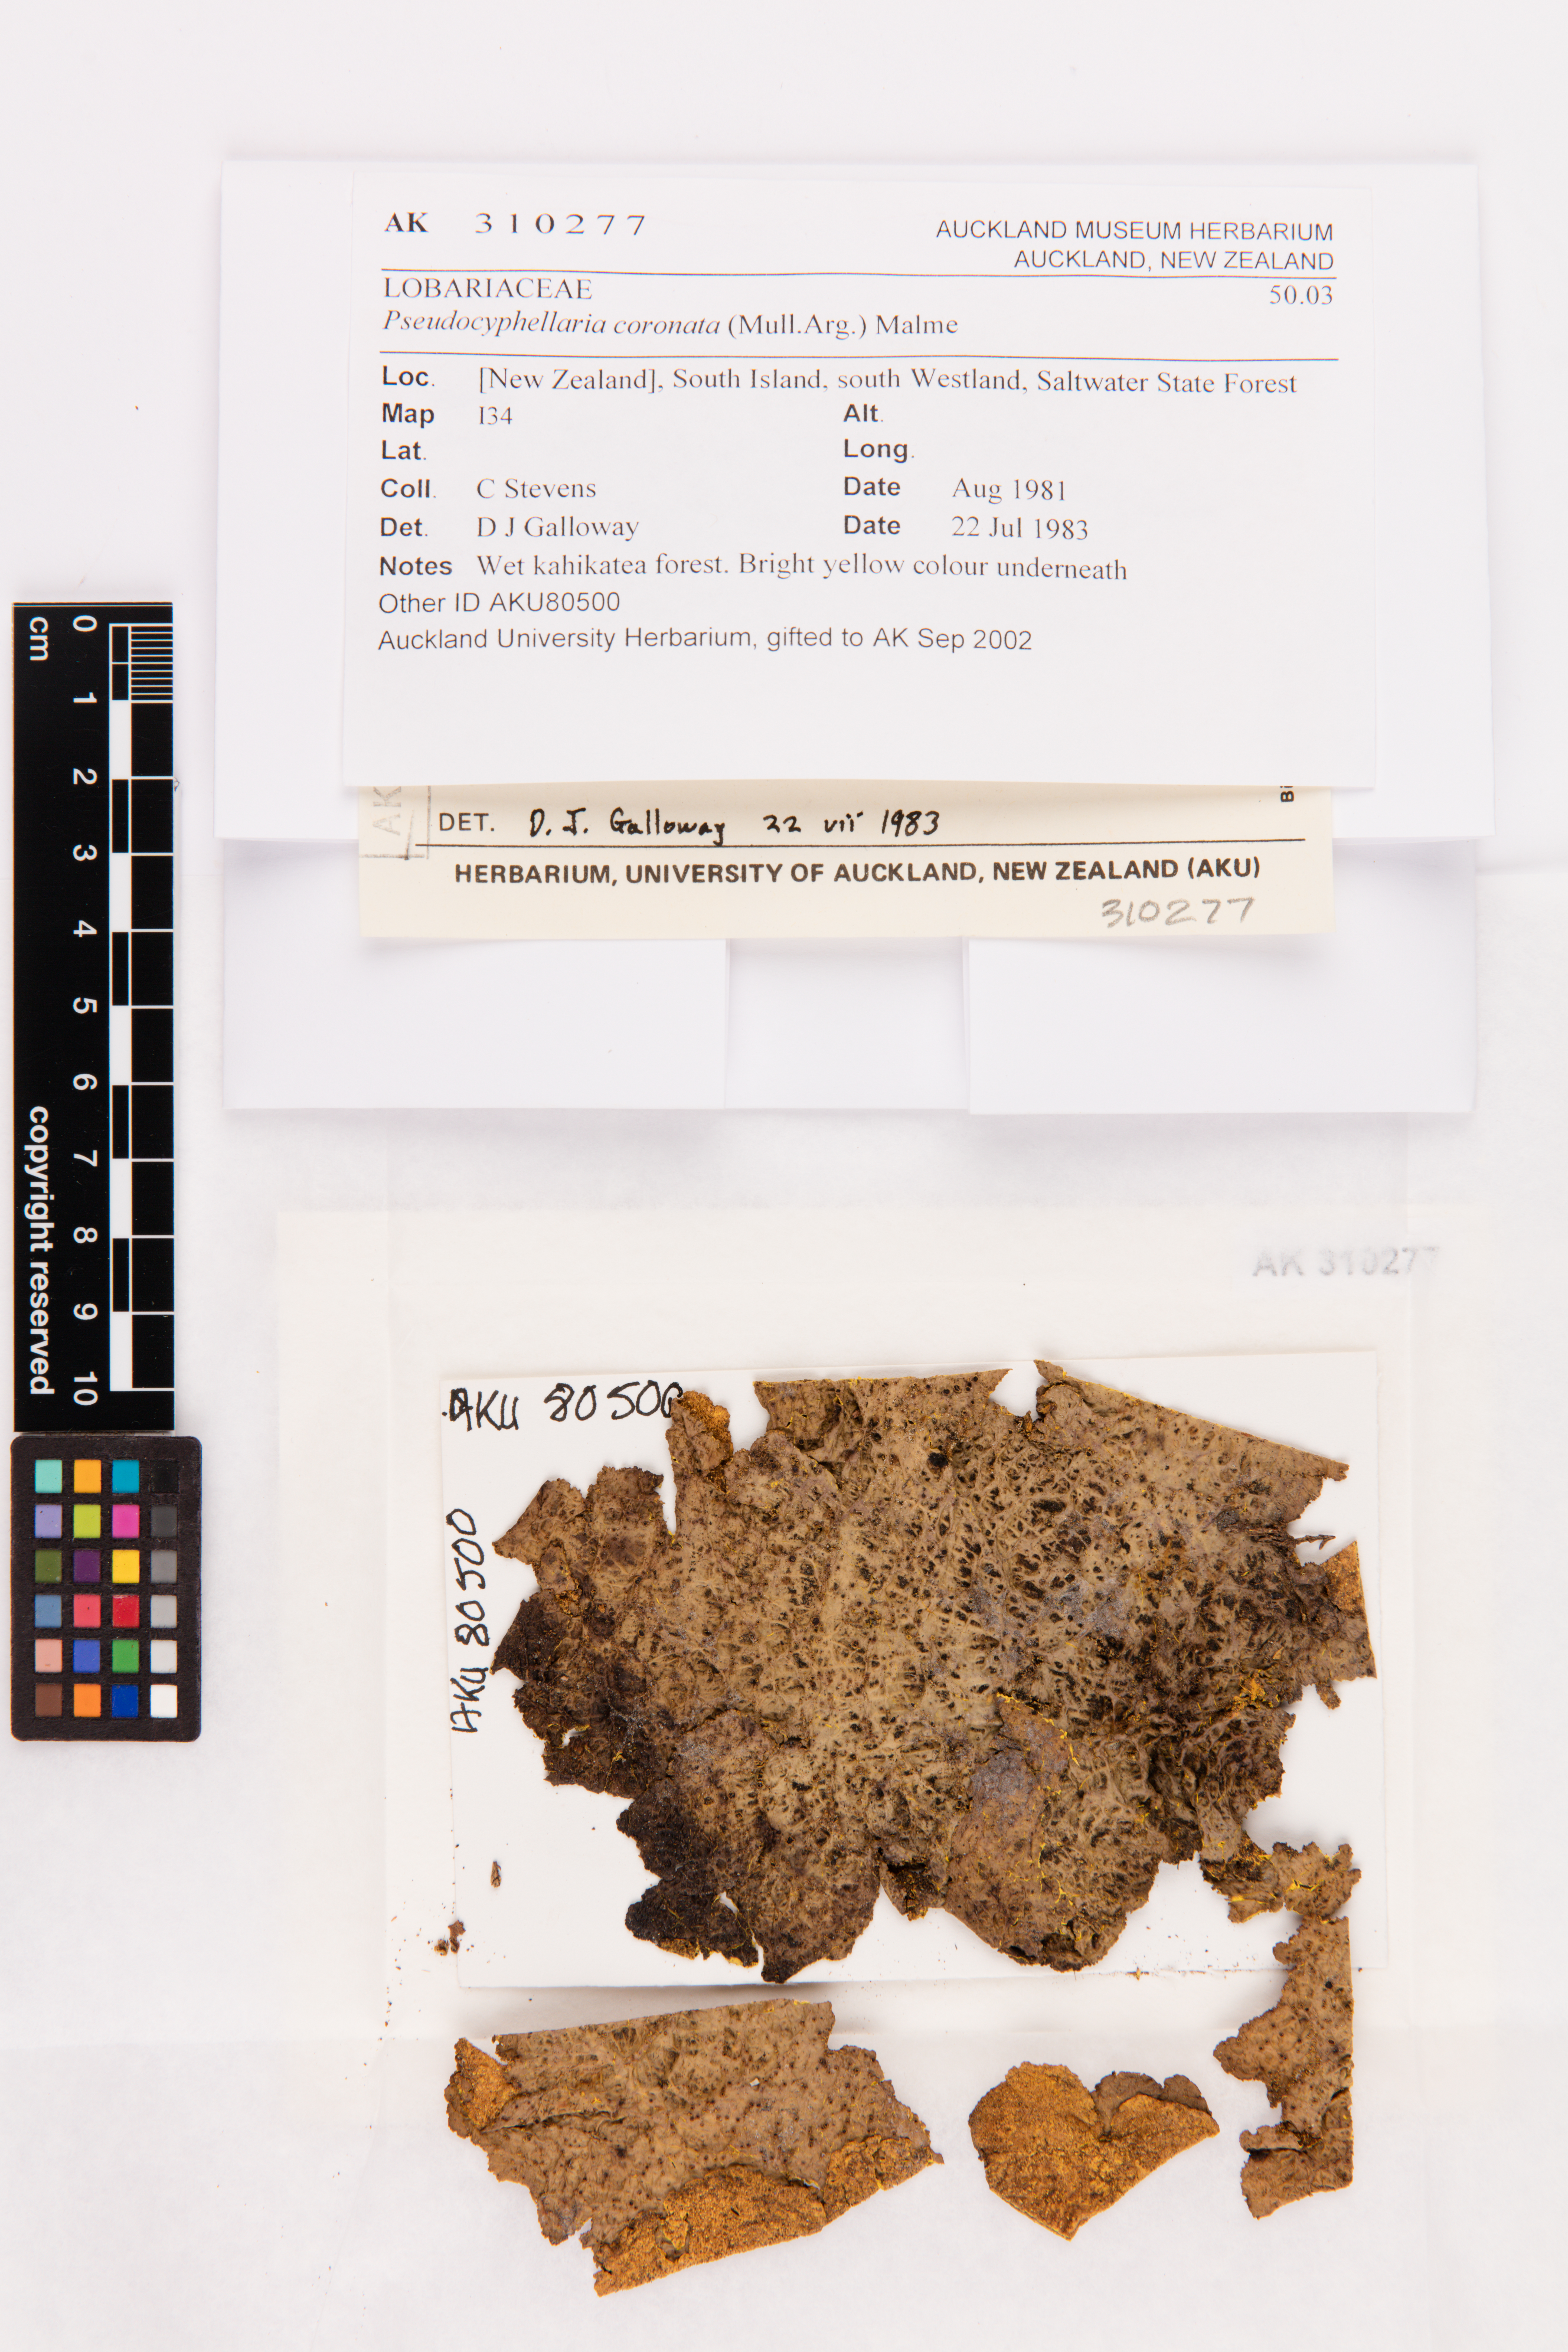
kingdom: Fungi
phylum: Ascomycota
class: Lecanoromycetes
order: Peltigerales
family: Lobariaceae
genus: Yarrumia
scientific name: Yarrumia coronata
